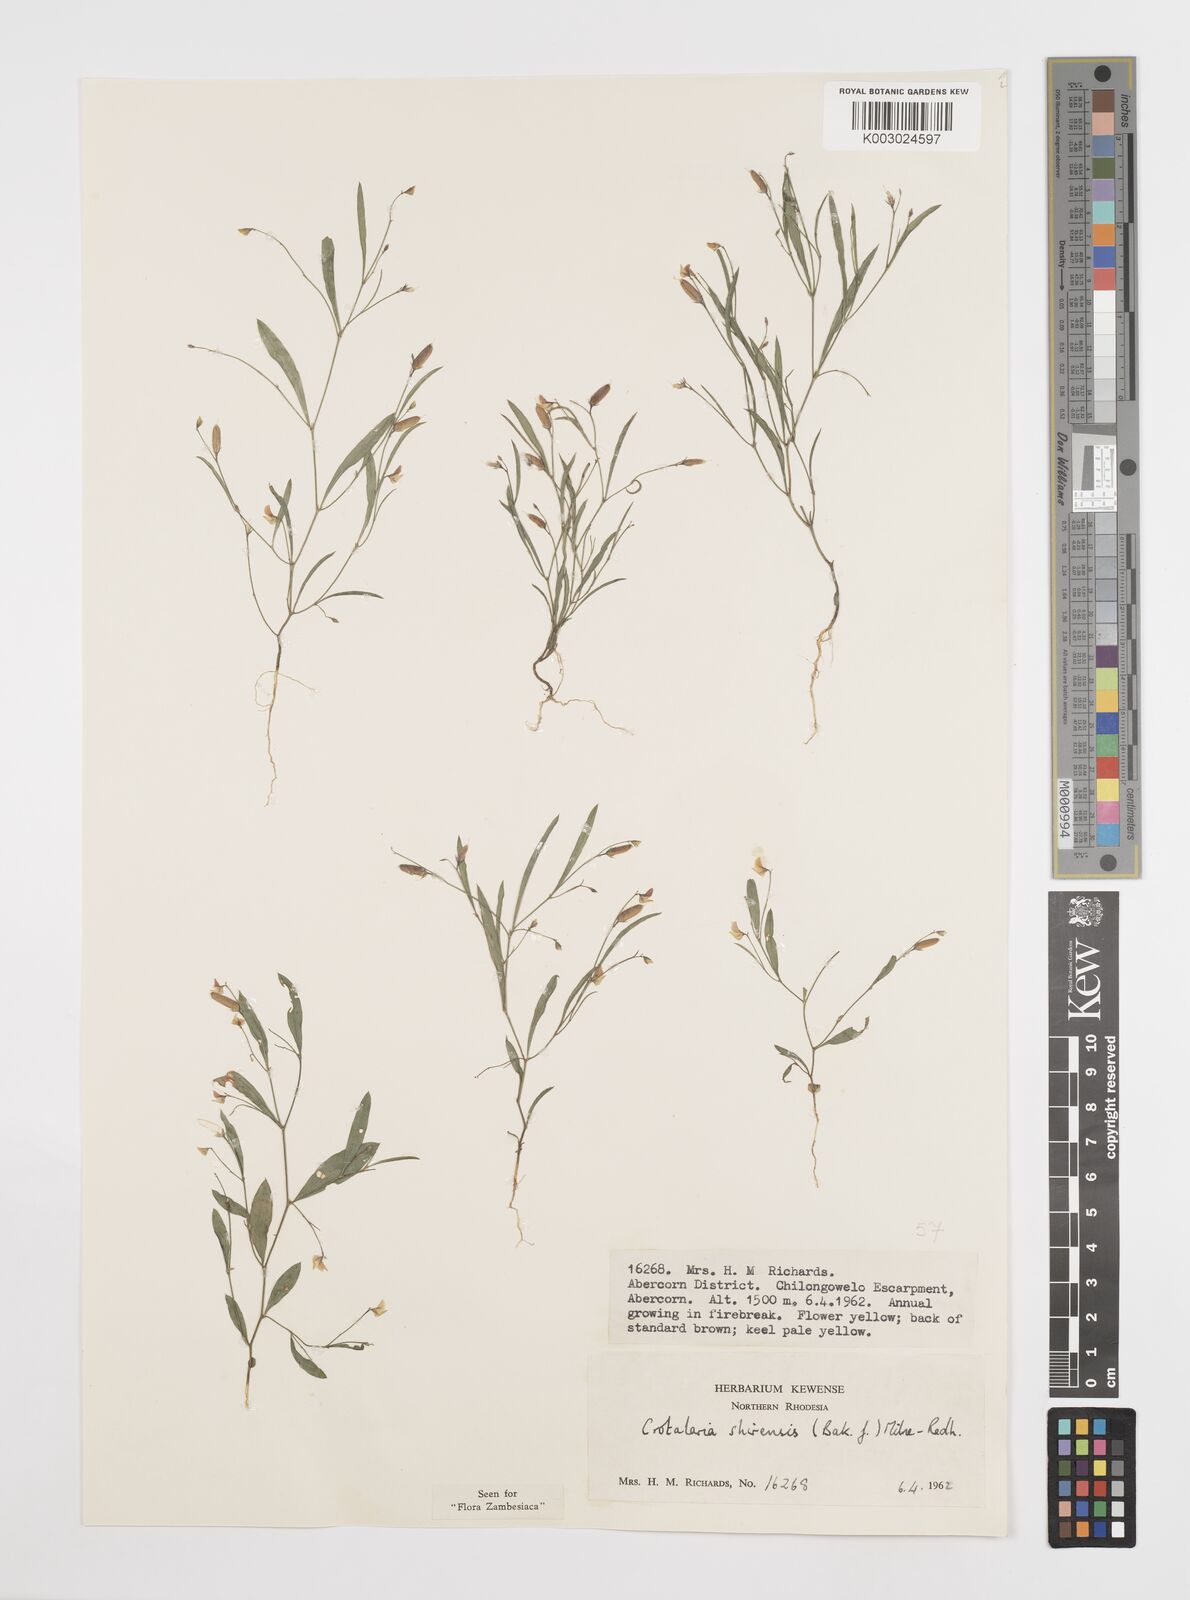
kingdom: Plantae
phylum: Tracheophyta
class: Magnoliopsida
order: Fabales
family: Fabaceae
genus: Crotalaria
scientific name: Crotalaria shirensis
